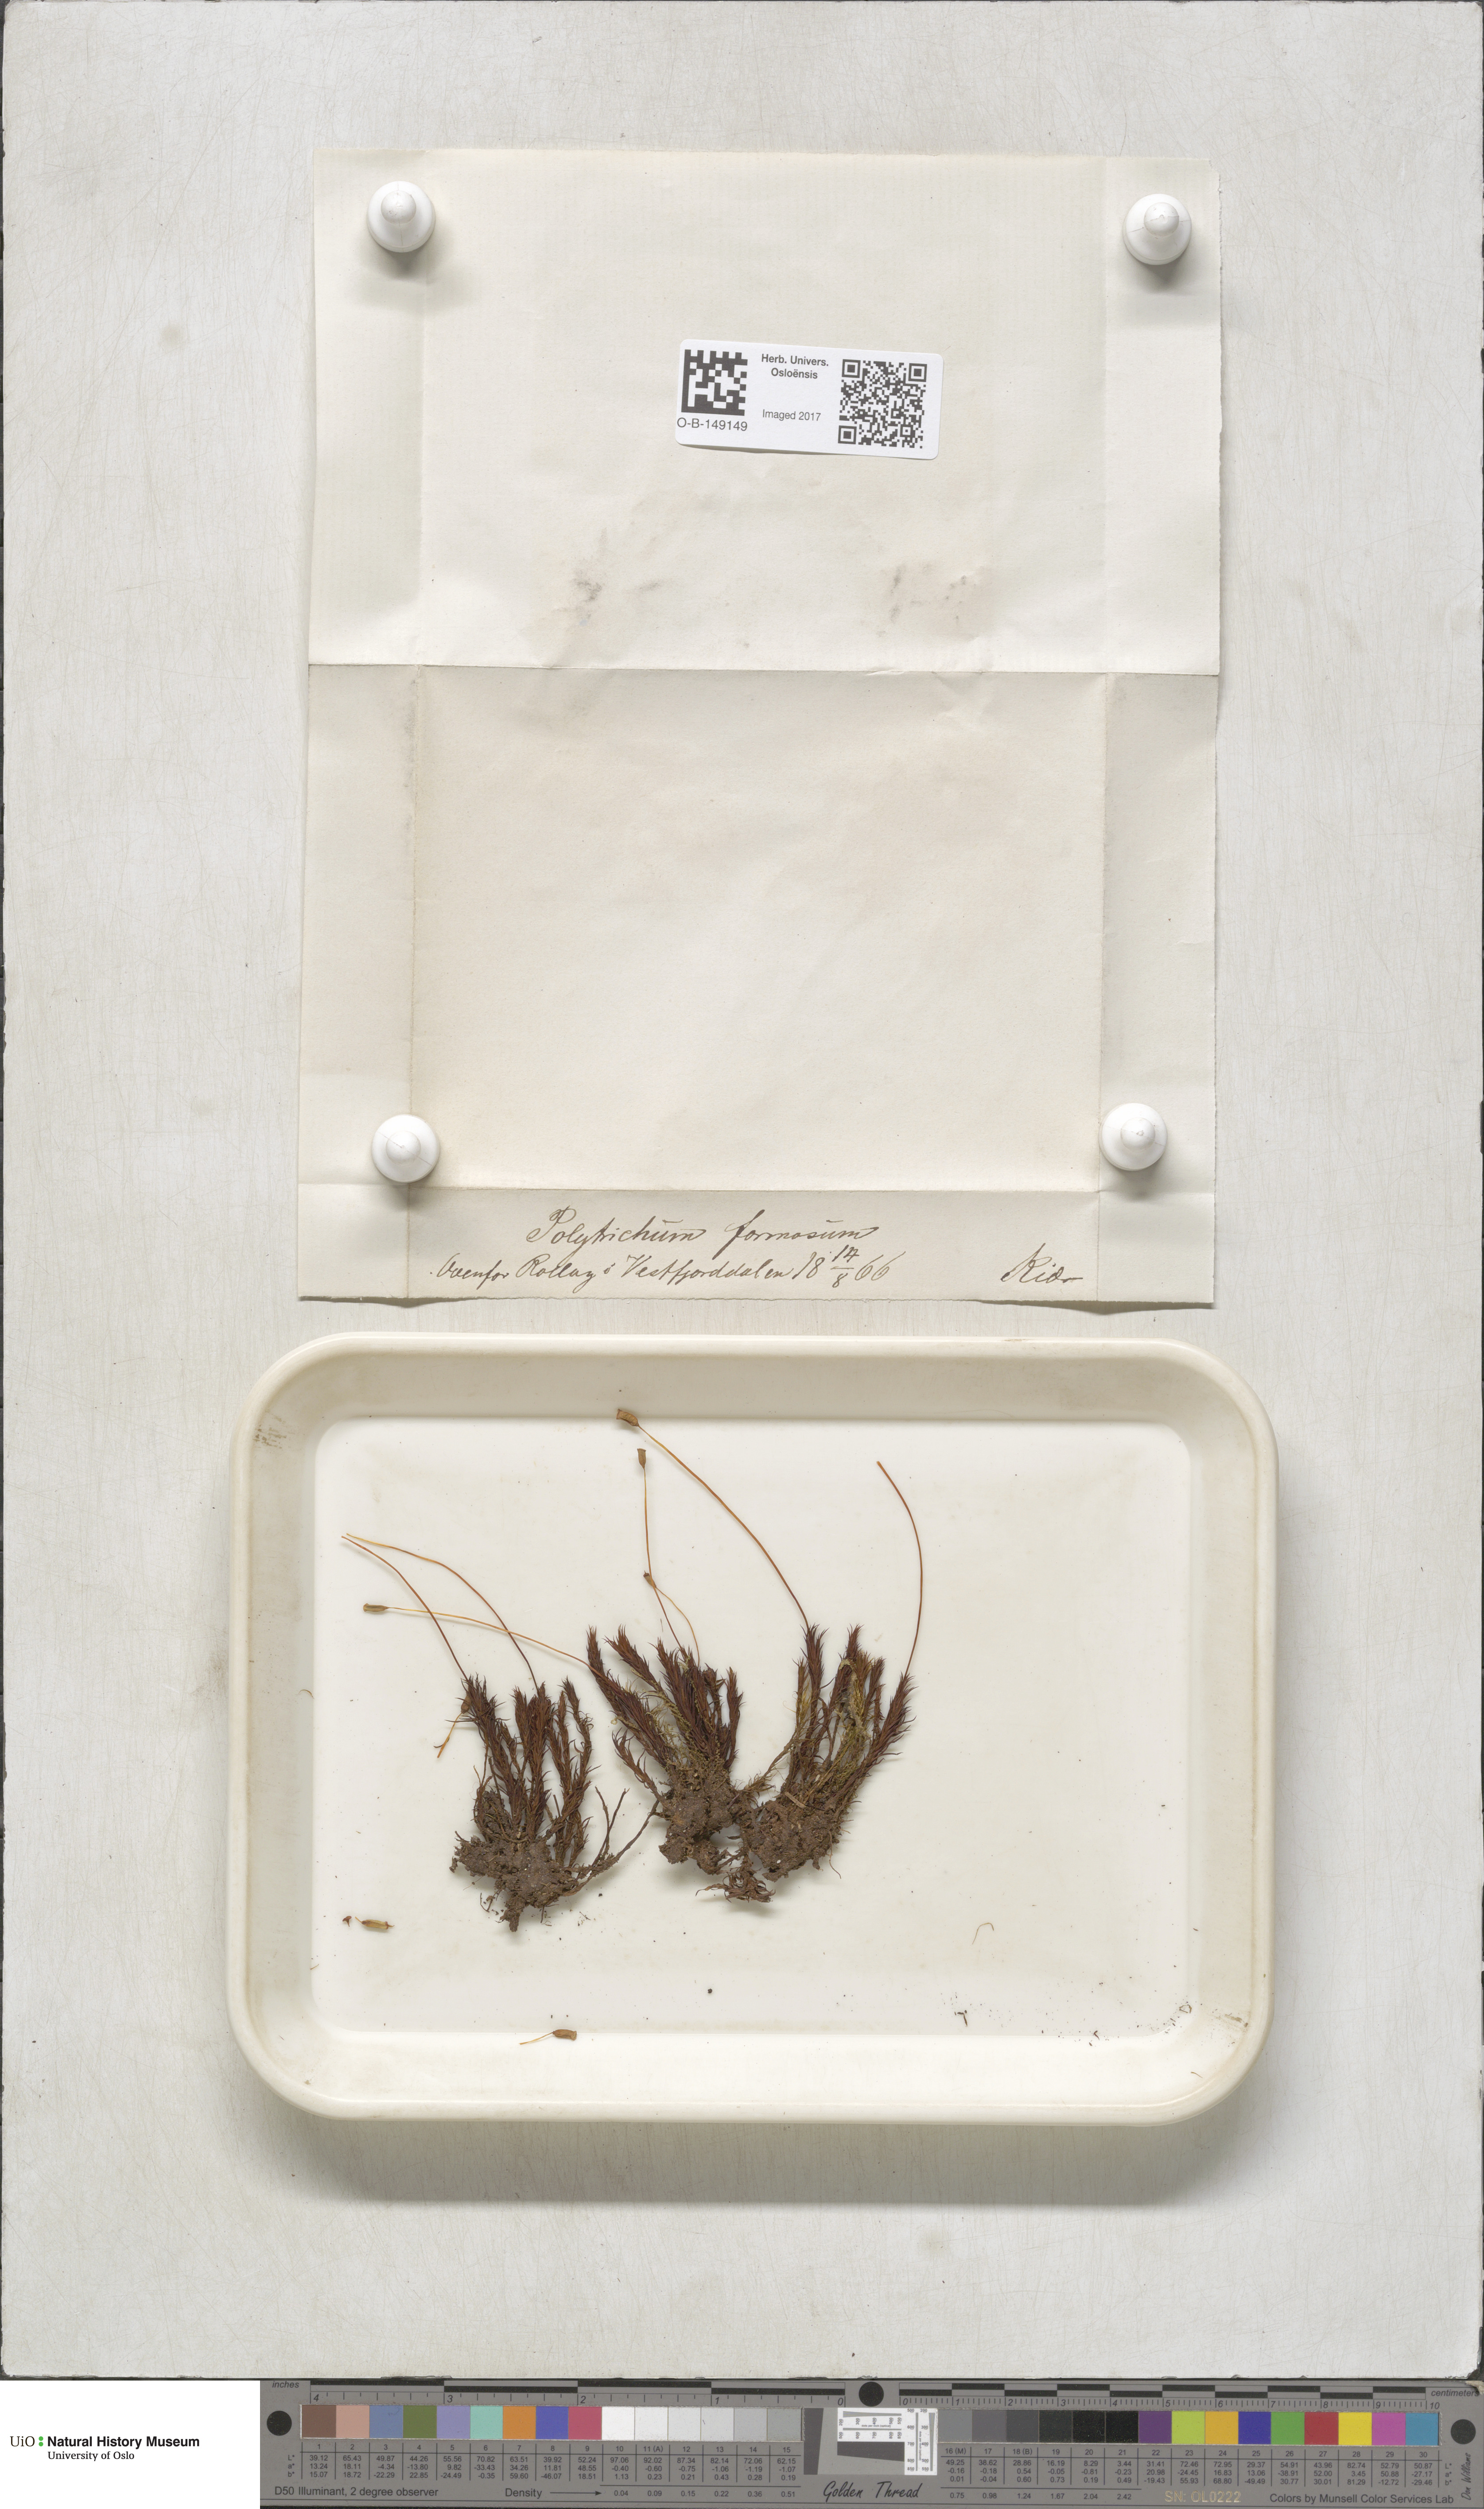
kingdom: Plantae
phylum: Bryophyta
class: Polytrichopsida
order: Polytrichales
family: Polytrichaceae
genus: Polytrichum
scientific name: Polytrichum formosum
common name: Bank haircap moss
